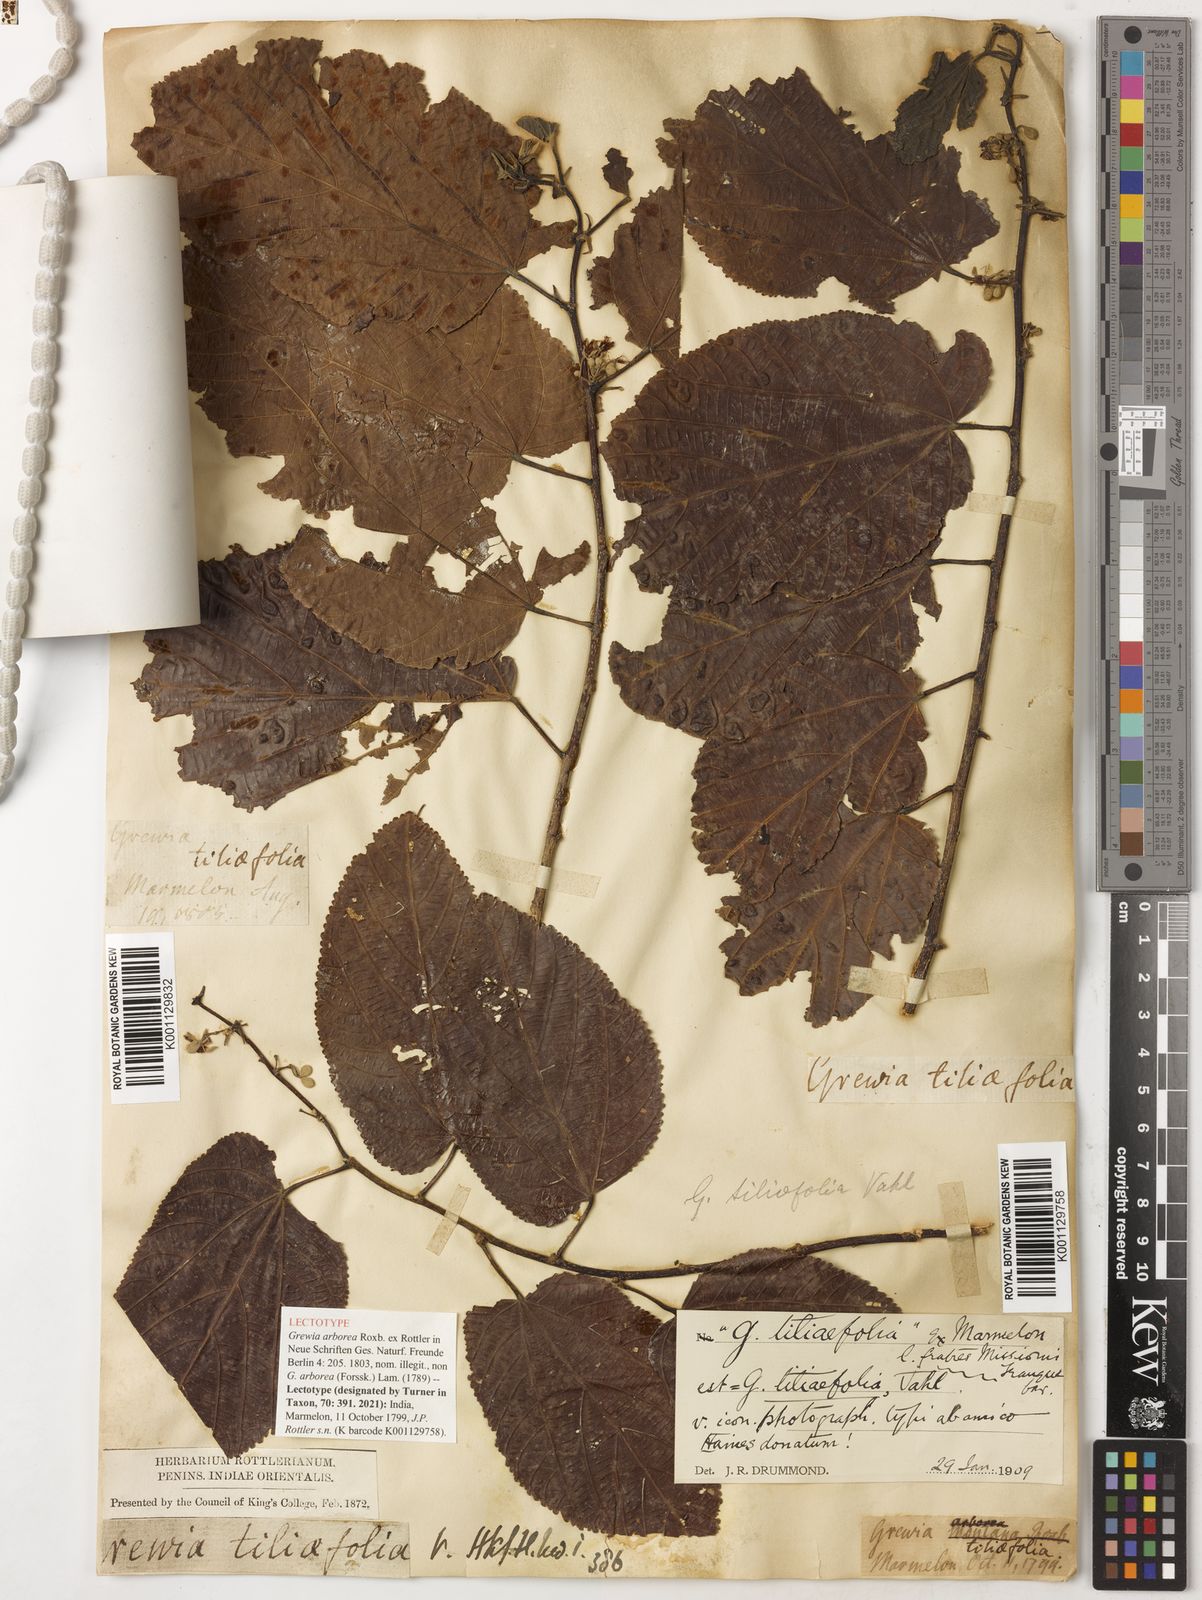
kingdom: Plantae
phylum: Tracheophyta
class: Magnoliopsida
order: Malvales
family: Malvaceae
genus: Grewia
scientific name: Grewia tiliifolia
